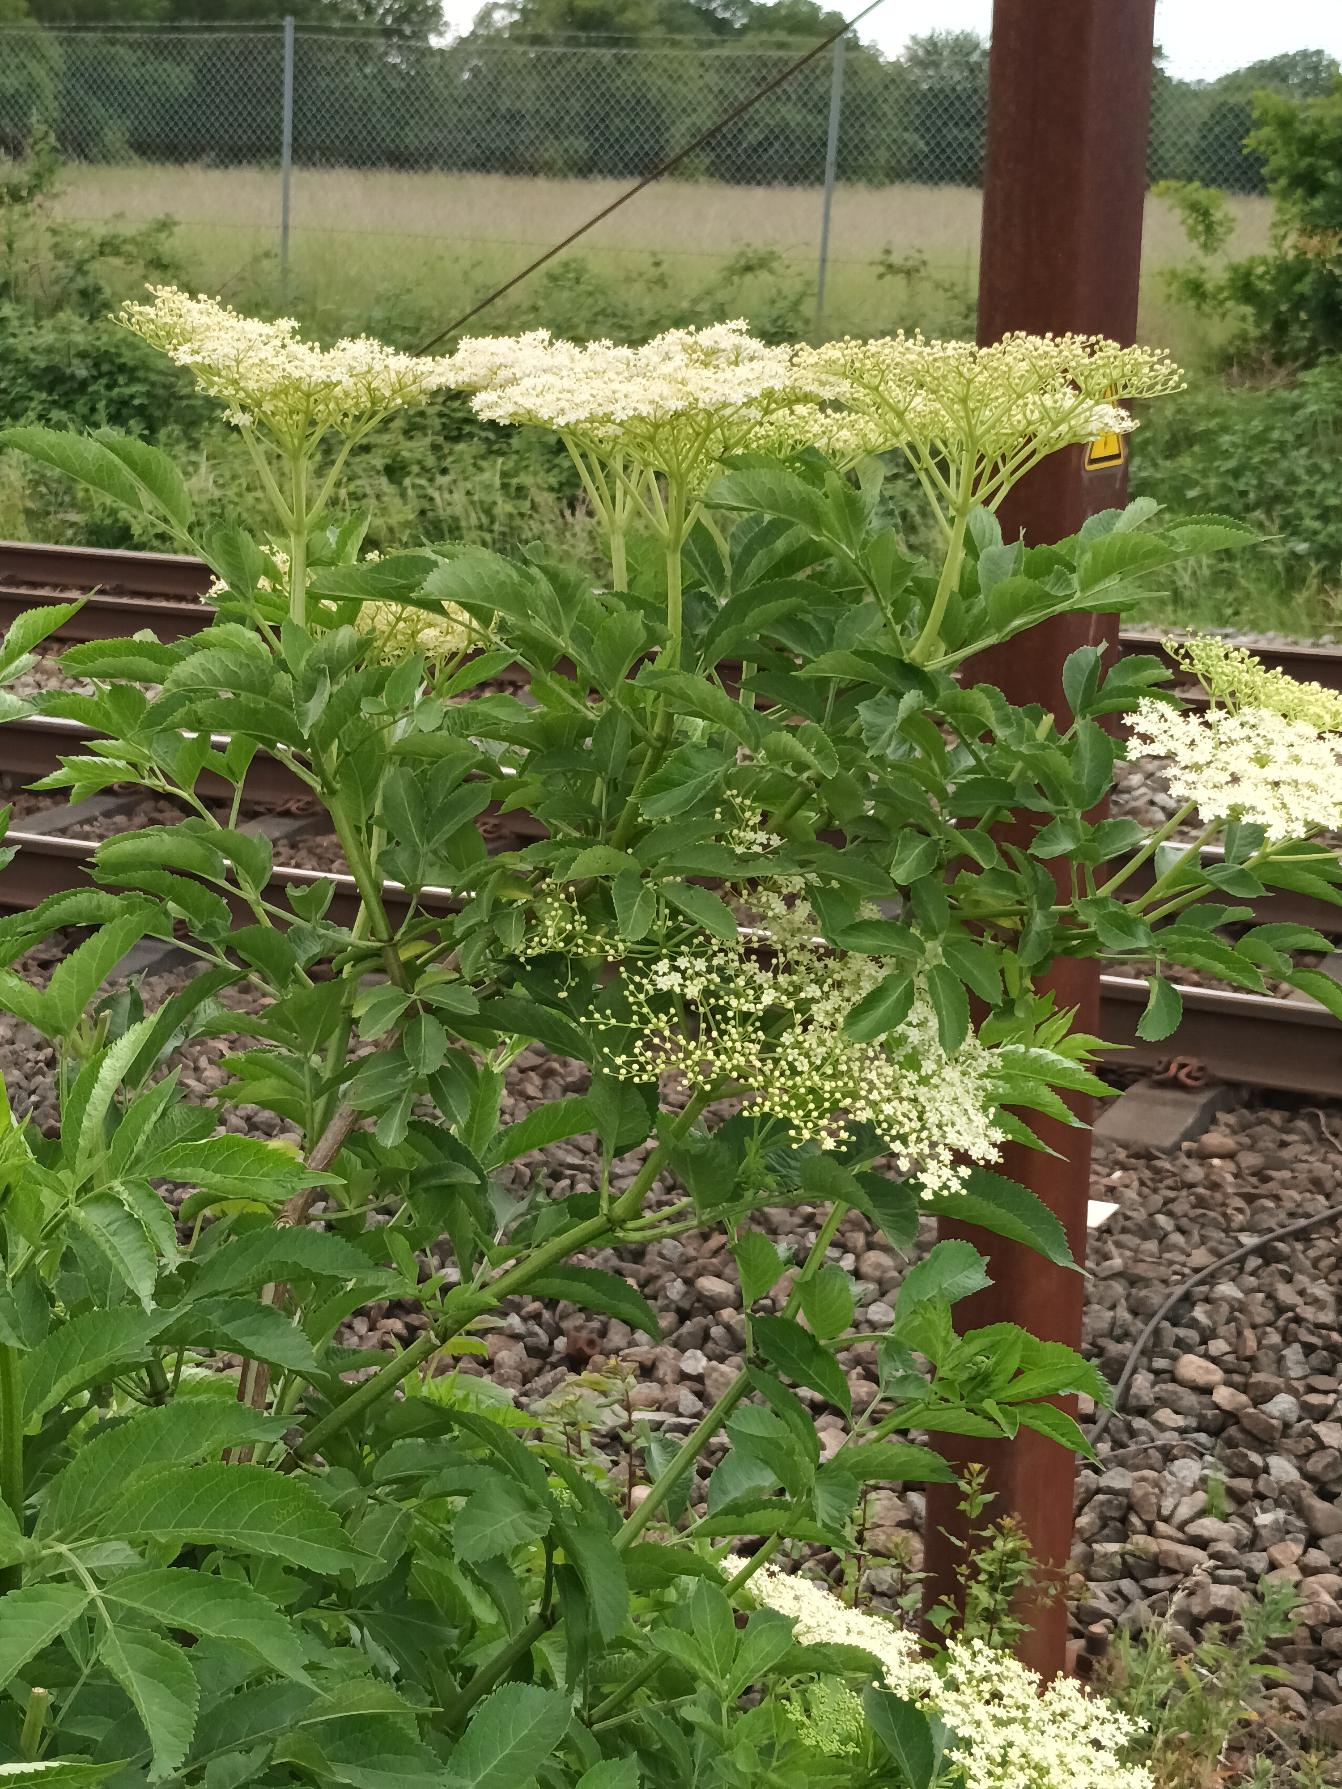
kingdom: Plantae
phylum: Tracheophyta
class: Magnoliopsida
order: Dipsacales
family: Viburnaceae
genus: Sambucus
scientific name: Sambucus nigra
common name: Almindelig hyld
